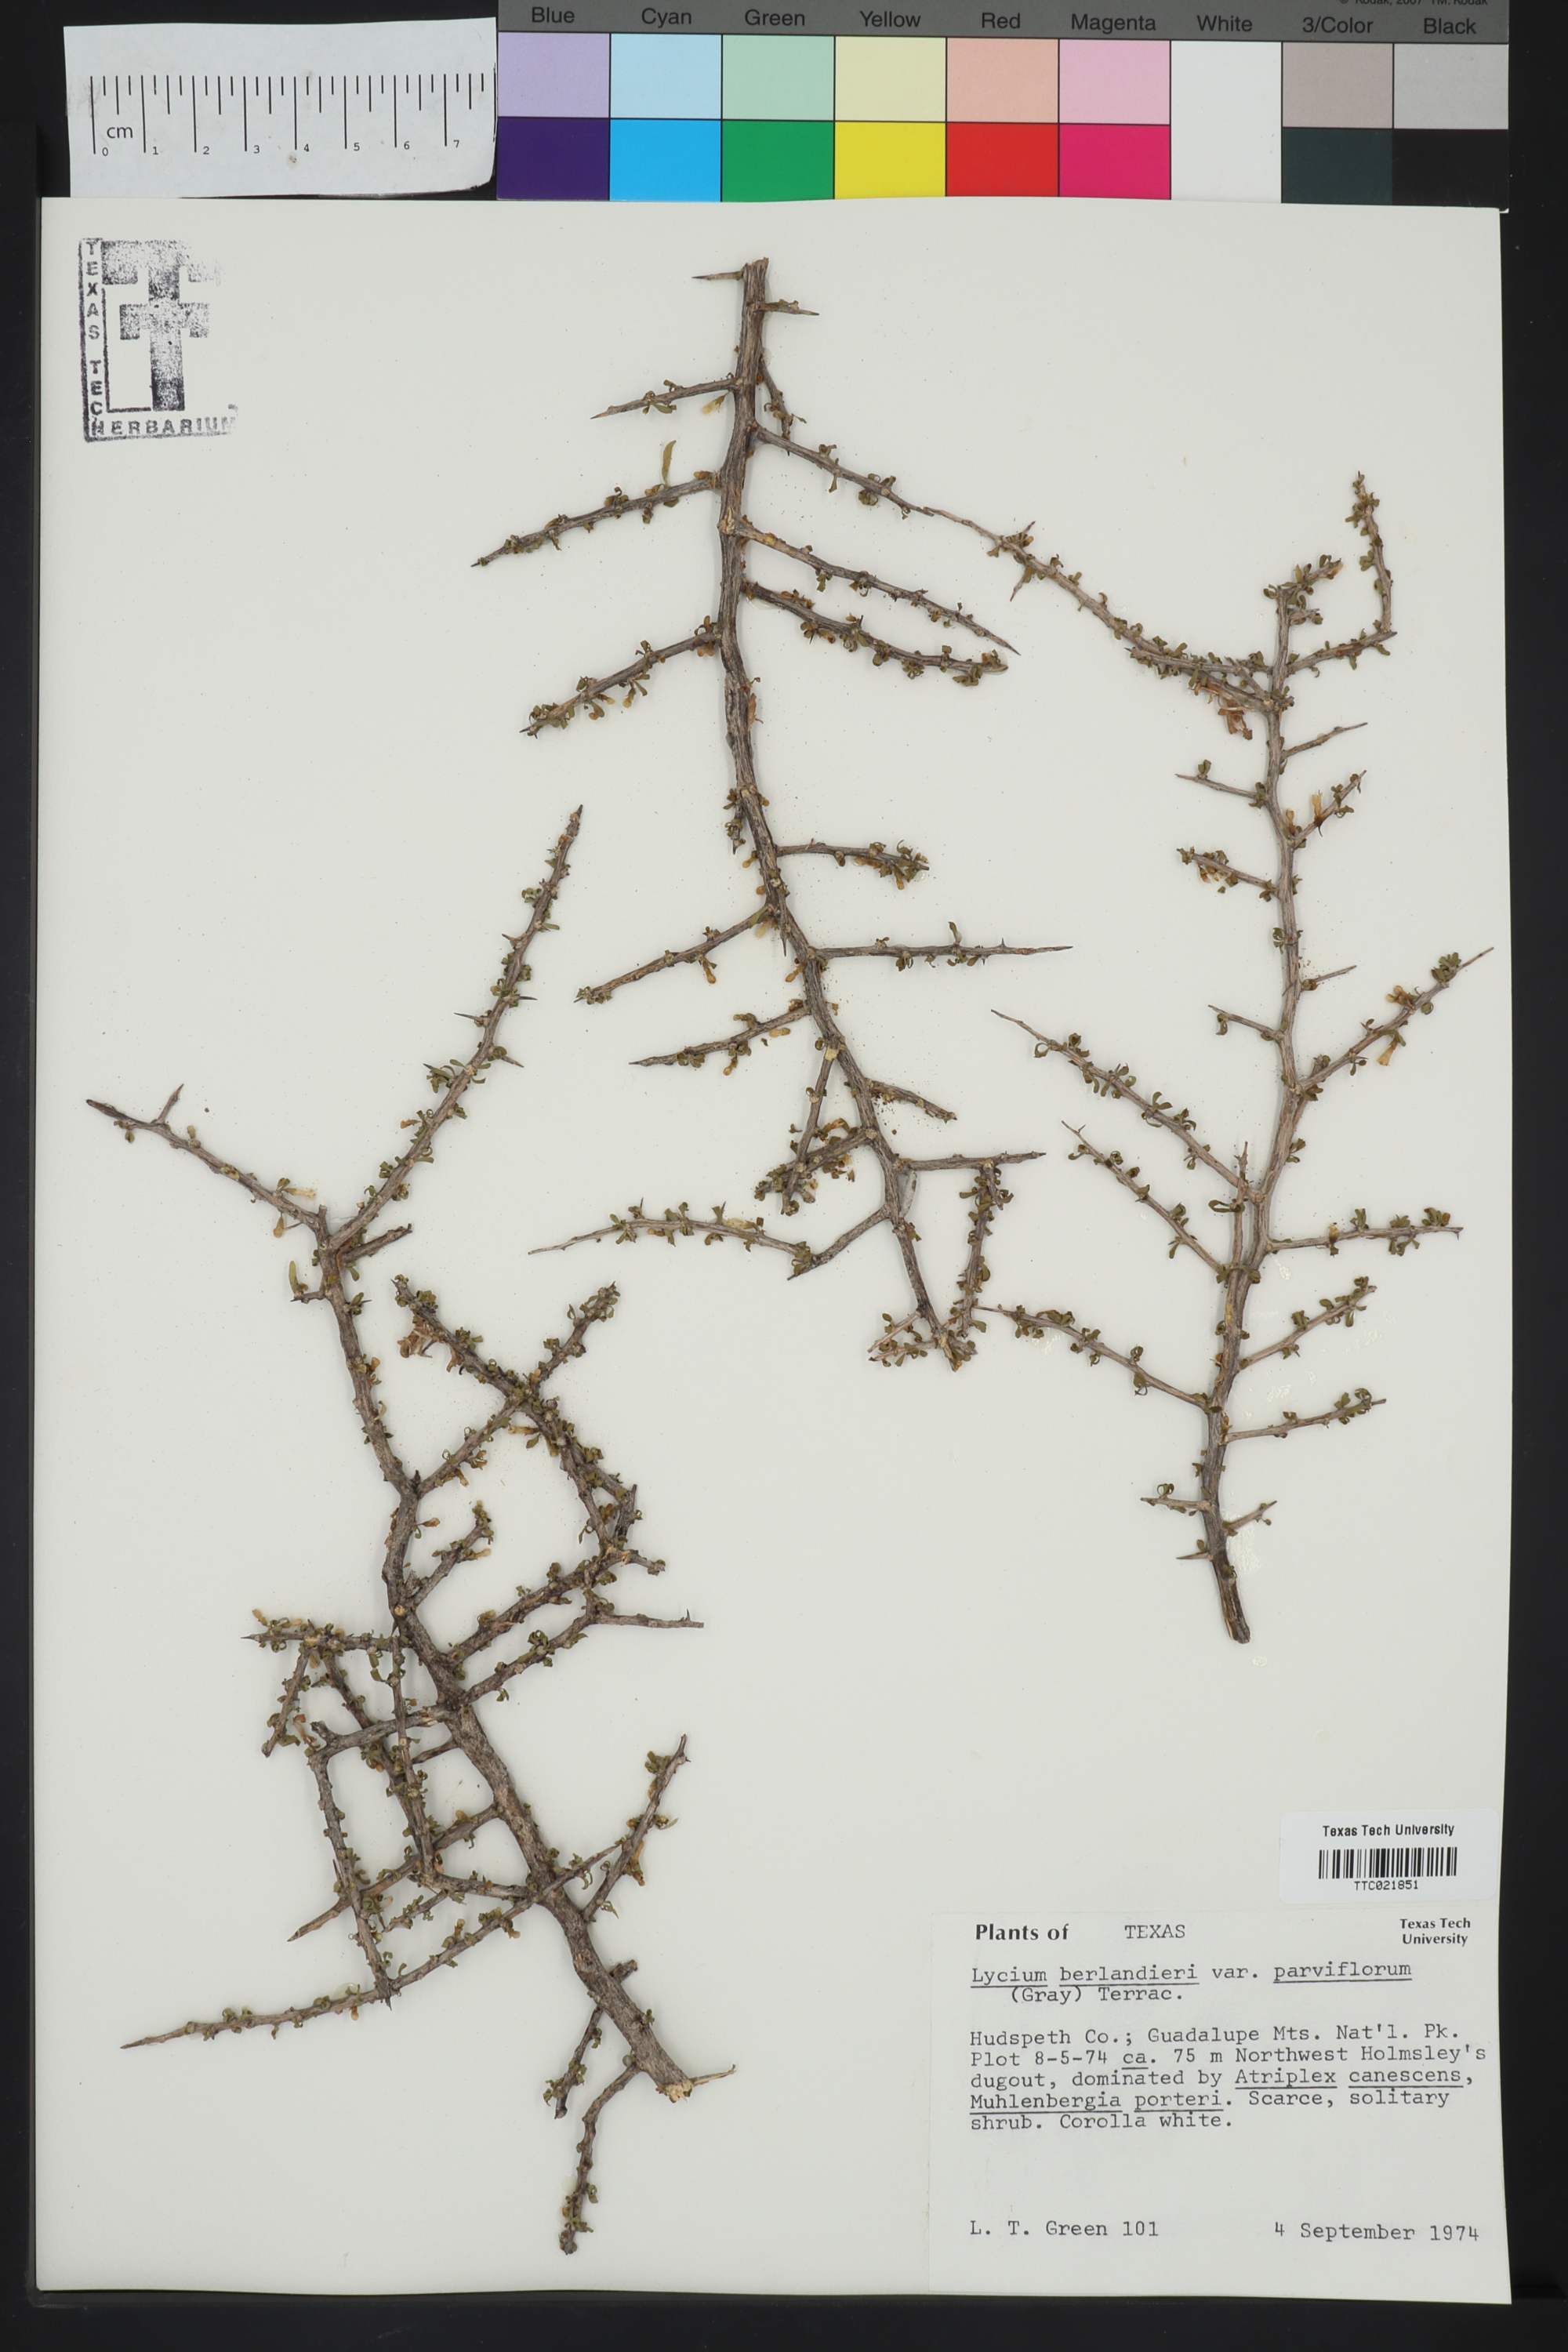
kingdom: Plantae
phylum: Tracheophyta
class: Magnoliopsida
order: Solanales
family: Solanaceae
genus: Lycium
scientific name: Lycium berlandieri
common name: Berlandier wolfberry
